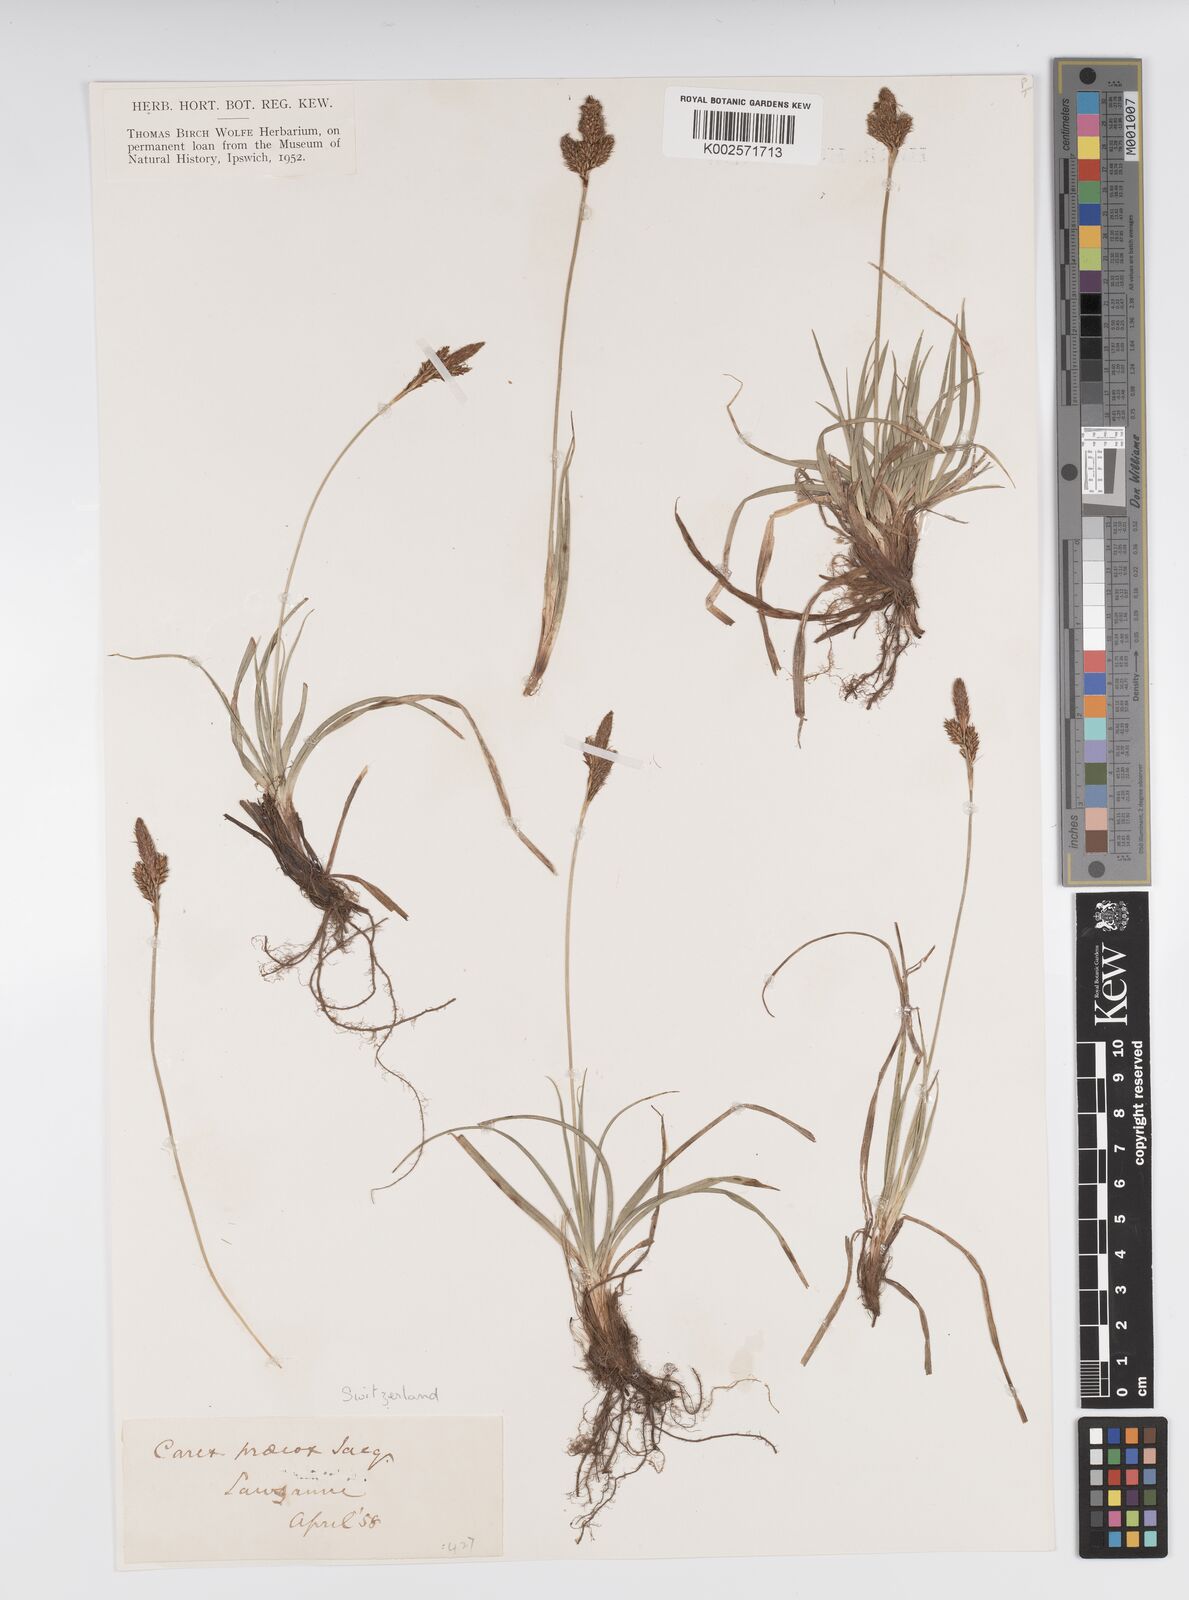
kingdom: Plantae
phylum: Tracheophyta
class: Liliopsida
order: Poales
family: Cyperaceae
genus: Carex
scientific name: Carex caryophyllea
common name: Spring sedge
